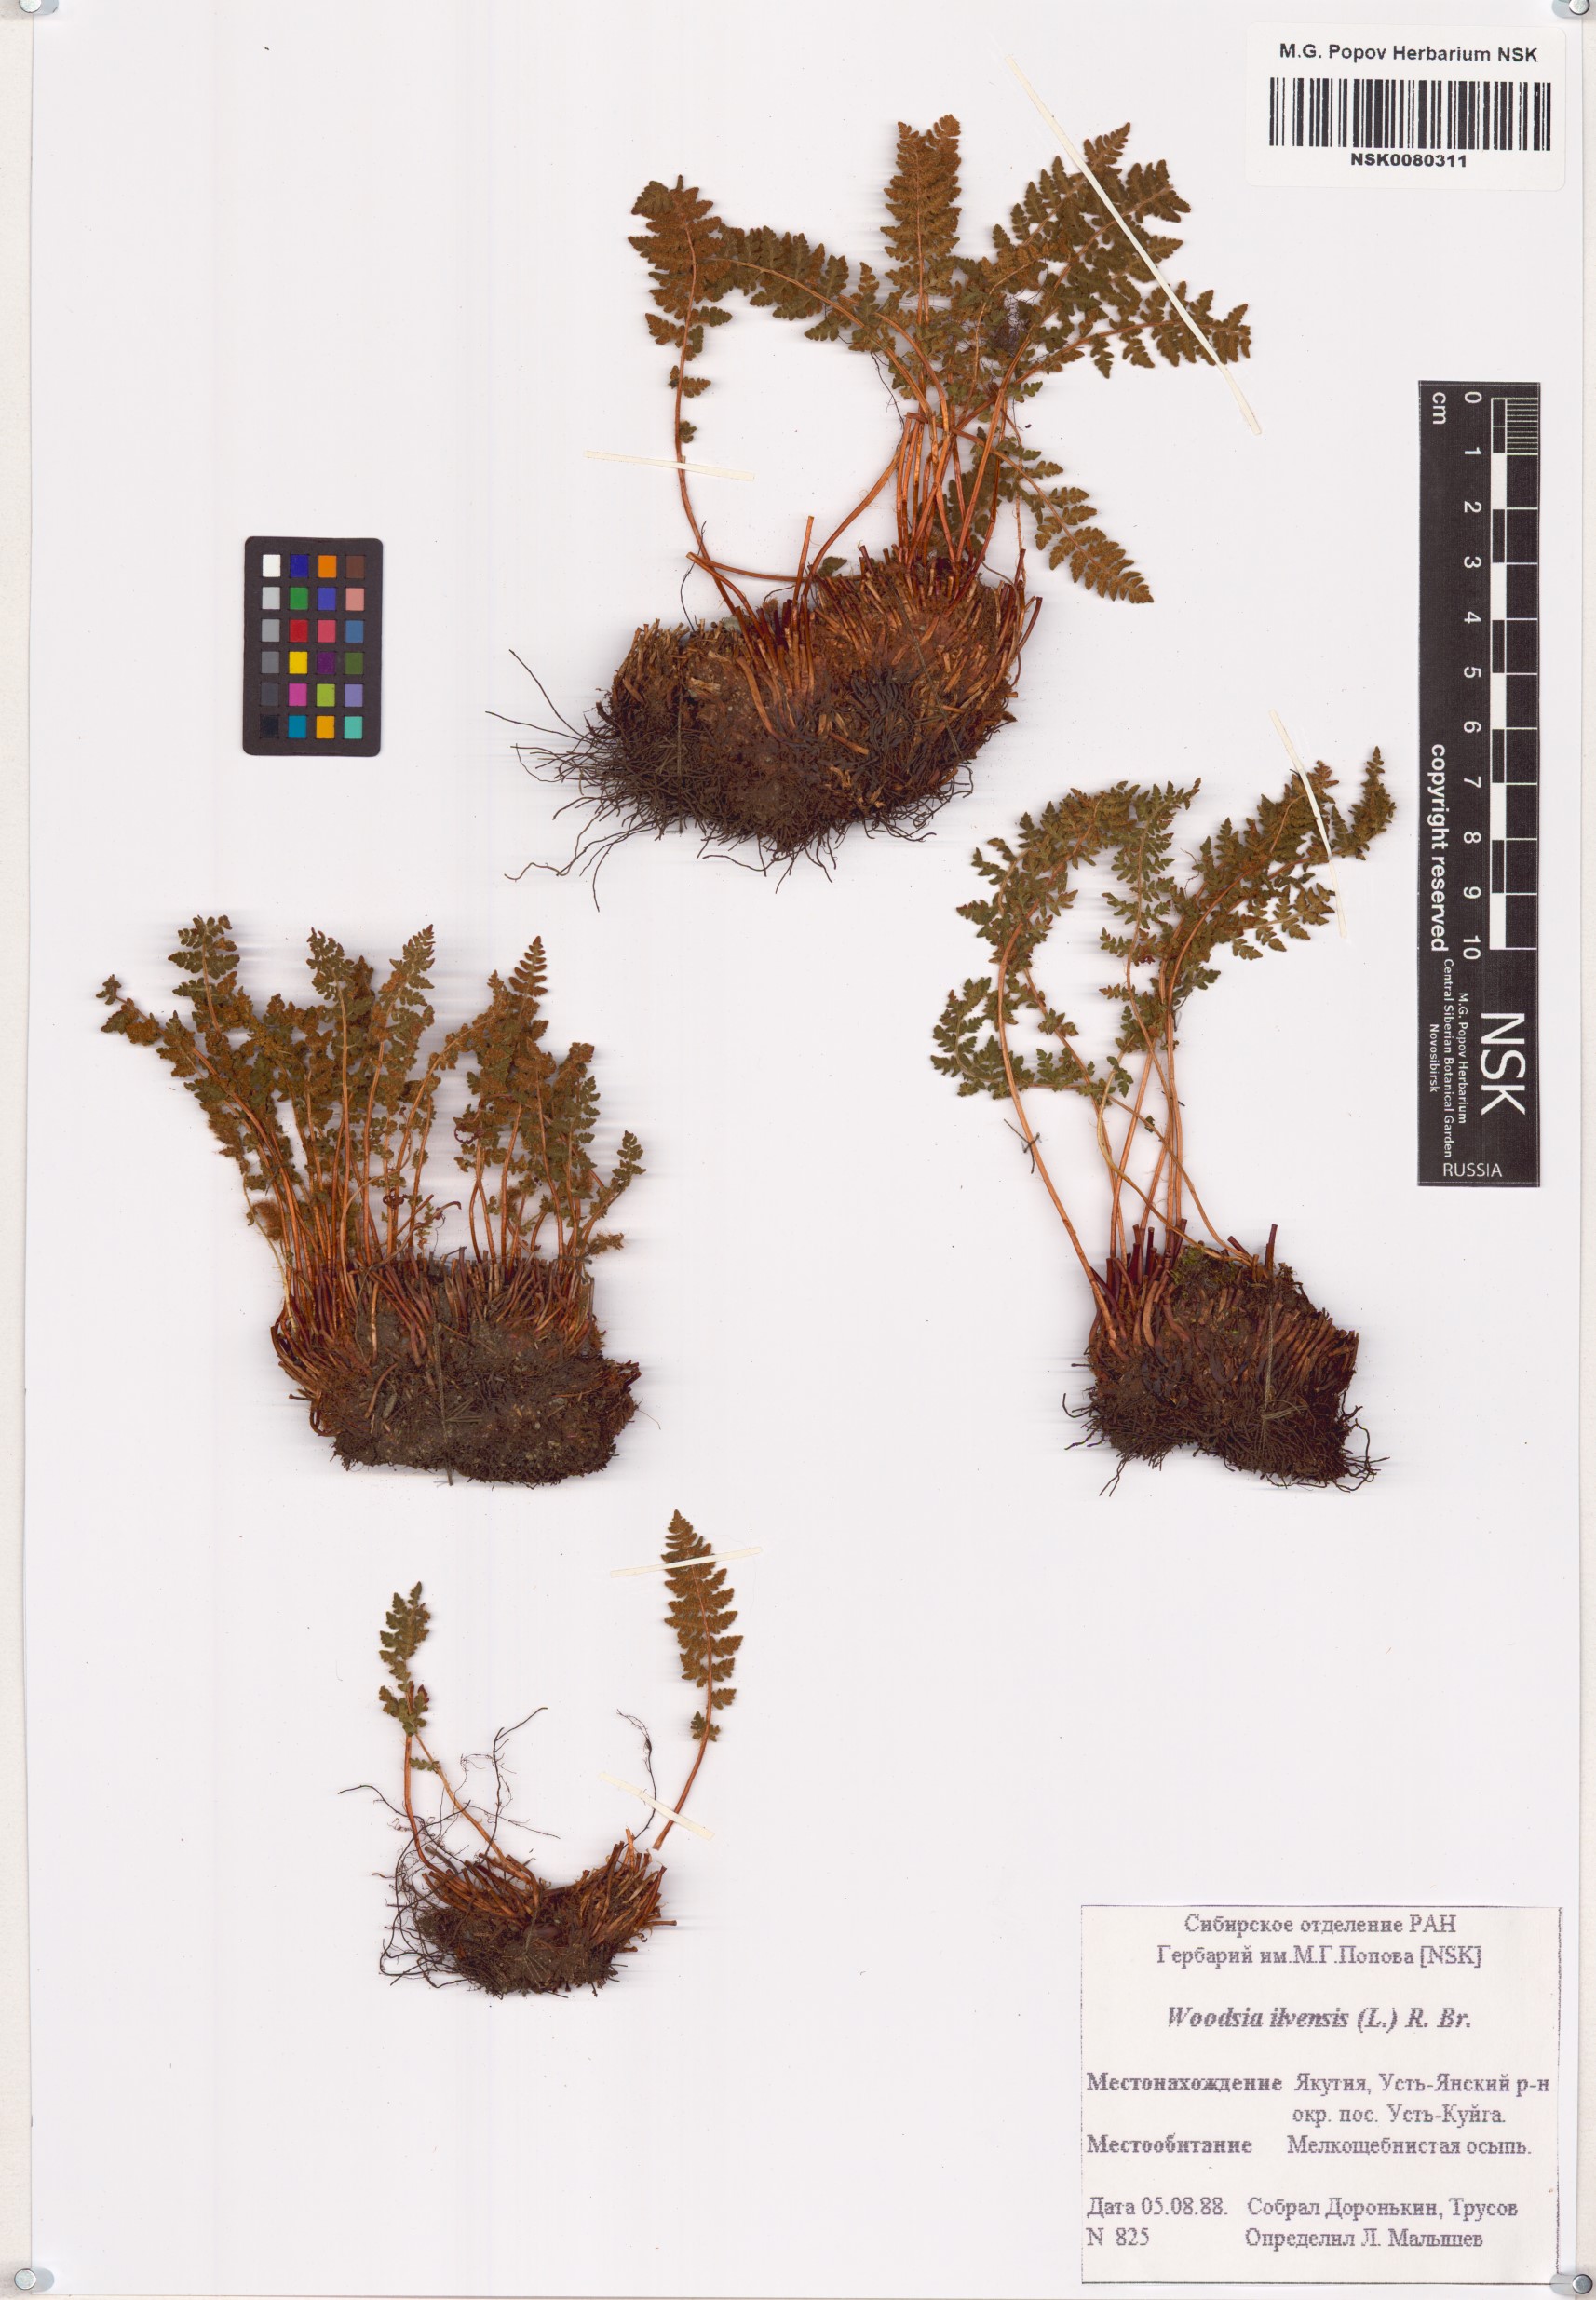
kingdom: Plantae
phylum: Tracheophyta
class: Polypodiopsida
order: Polypodiales
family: Woodsiaceae
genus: Woodsia
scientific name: Woodsia ilvensis
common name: Fragrant woodsia
